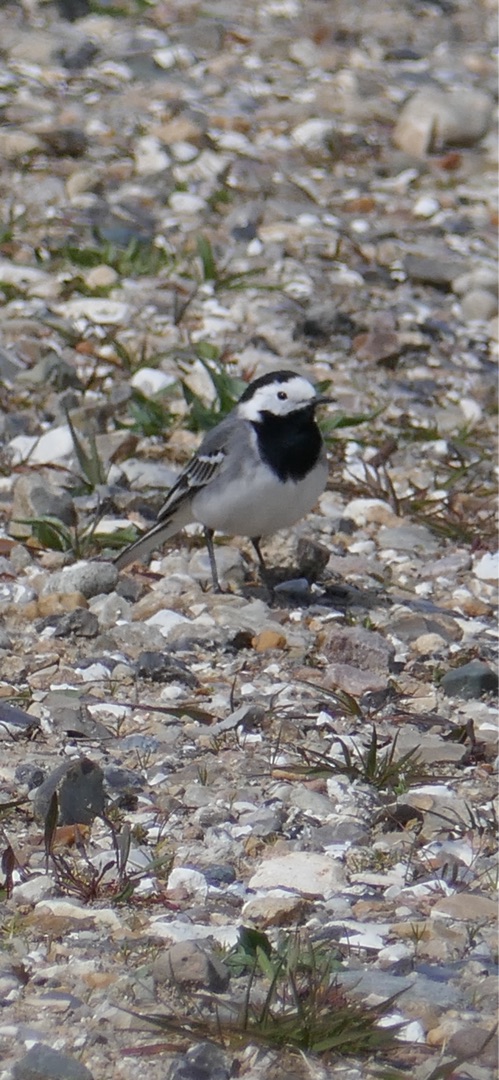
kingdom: Animalia
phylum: Chordata
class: Aves
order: Passeriformes
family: Motacillidae
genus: Motacilla
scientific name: Motacilla alba
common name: Hvid vipstjert
